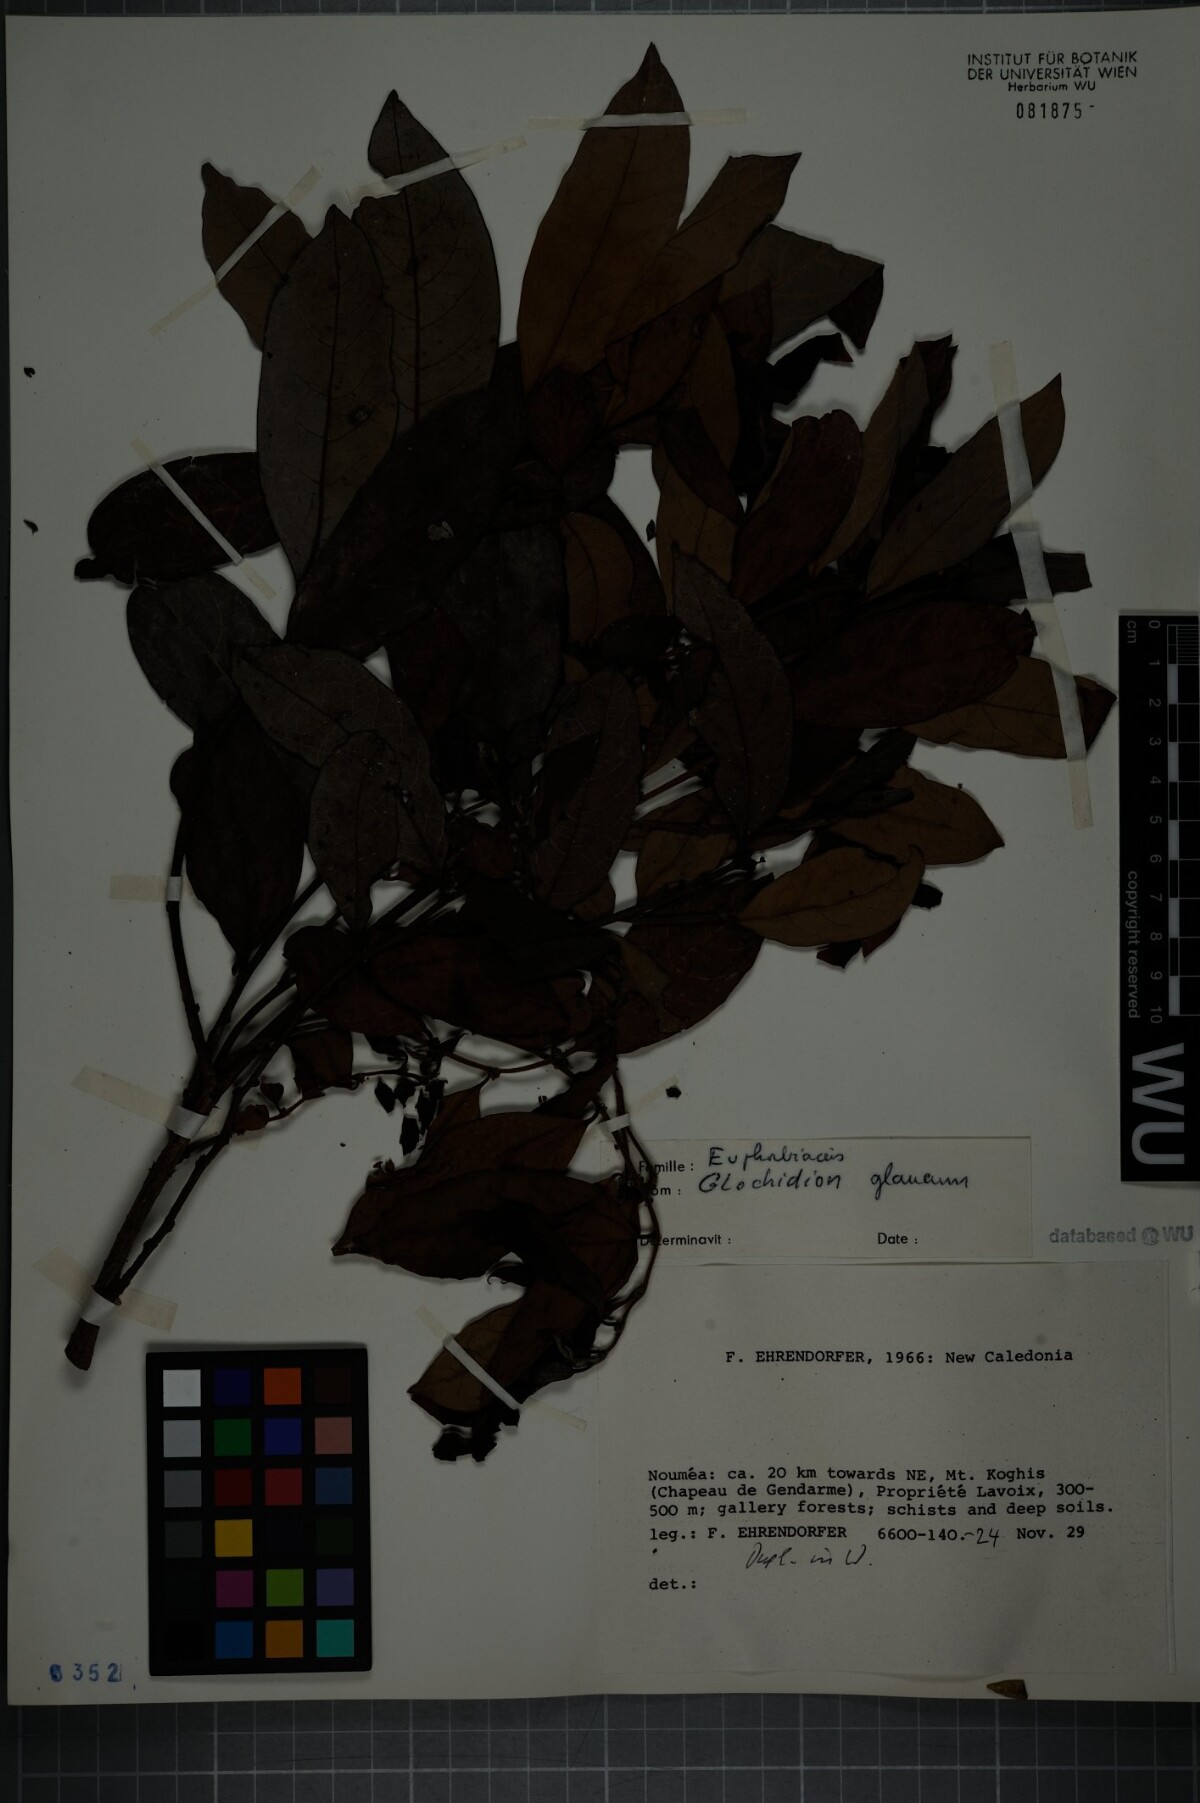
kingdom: Plantae
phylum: Tracheophyta
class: Magnoliopsida
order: Malpighiales
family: Phyllanthaceae
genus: Glochidion
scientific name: Glochidion billardierei
